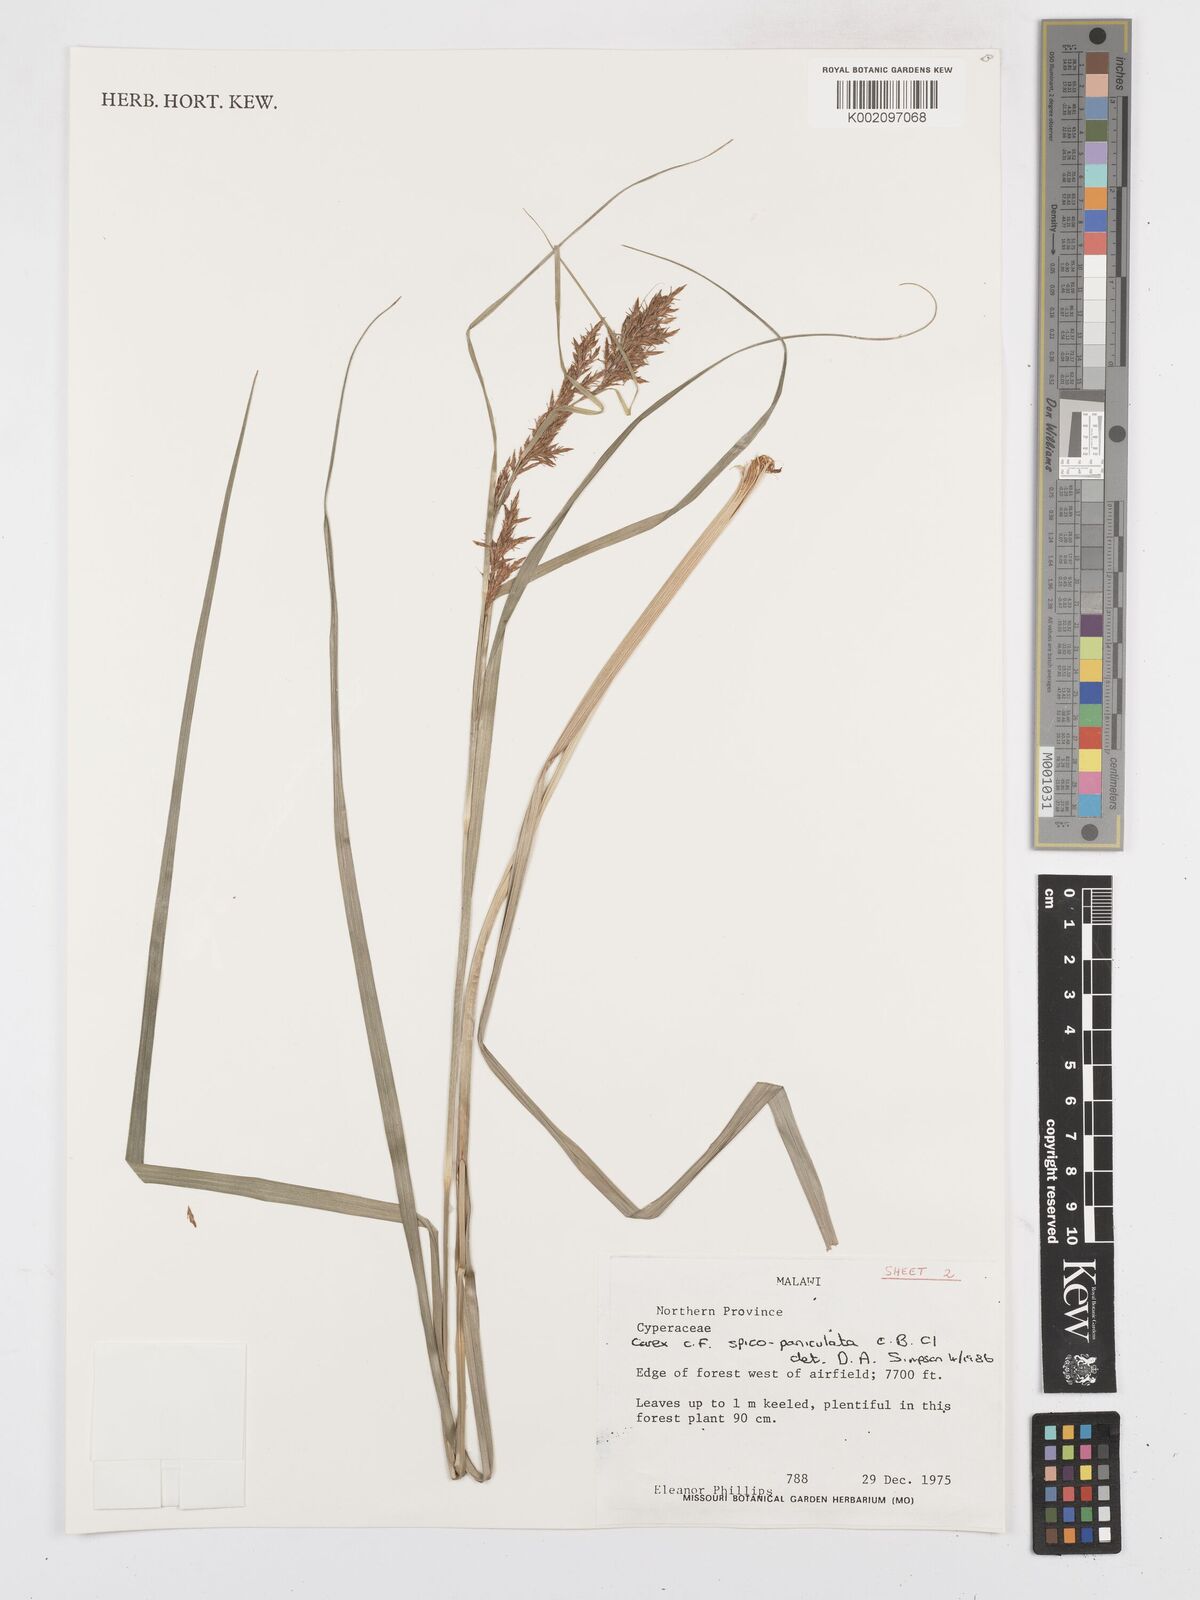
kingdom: Plantae
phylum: Tracheophyta
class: Liliopsida
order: Poales
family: Cyperaceae
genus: Carex
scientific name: Carex spicatopaniculata
